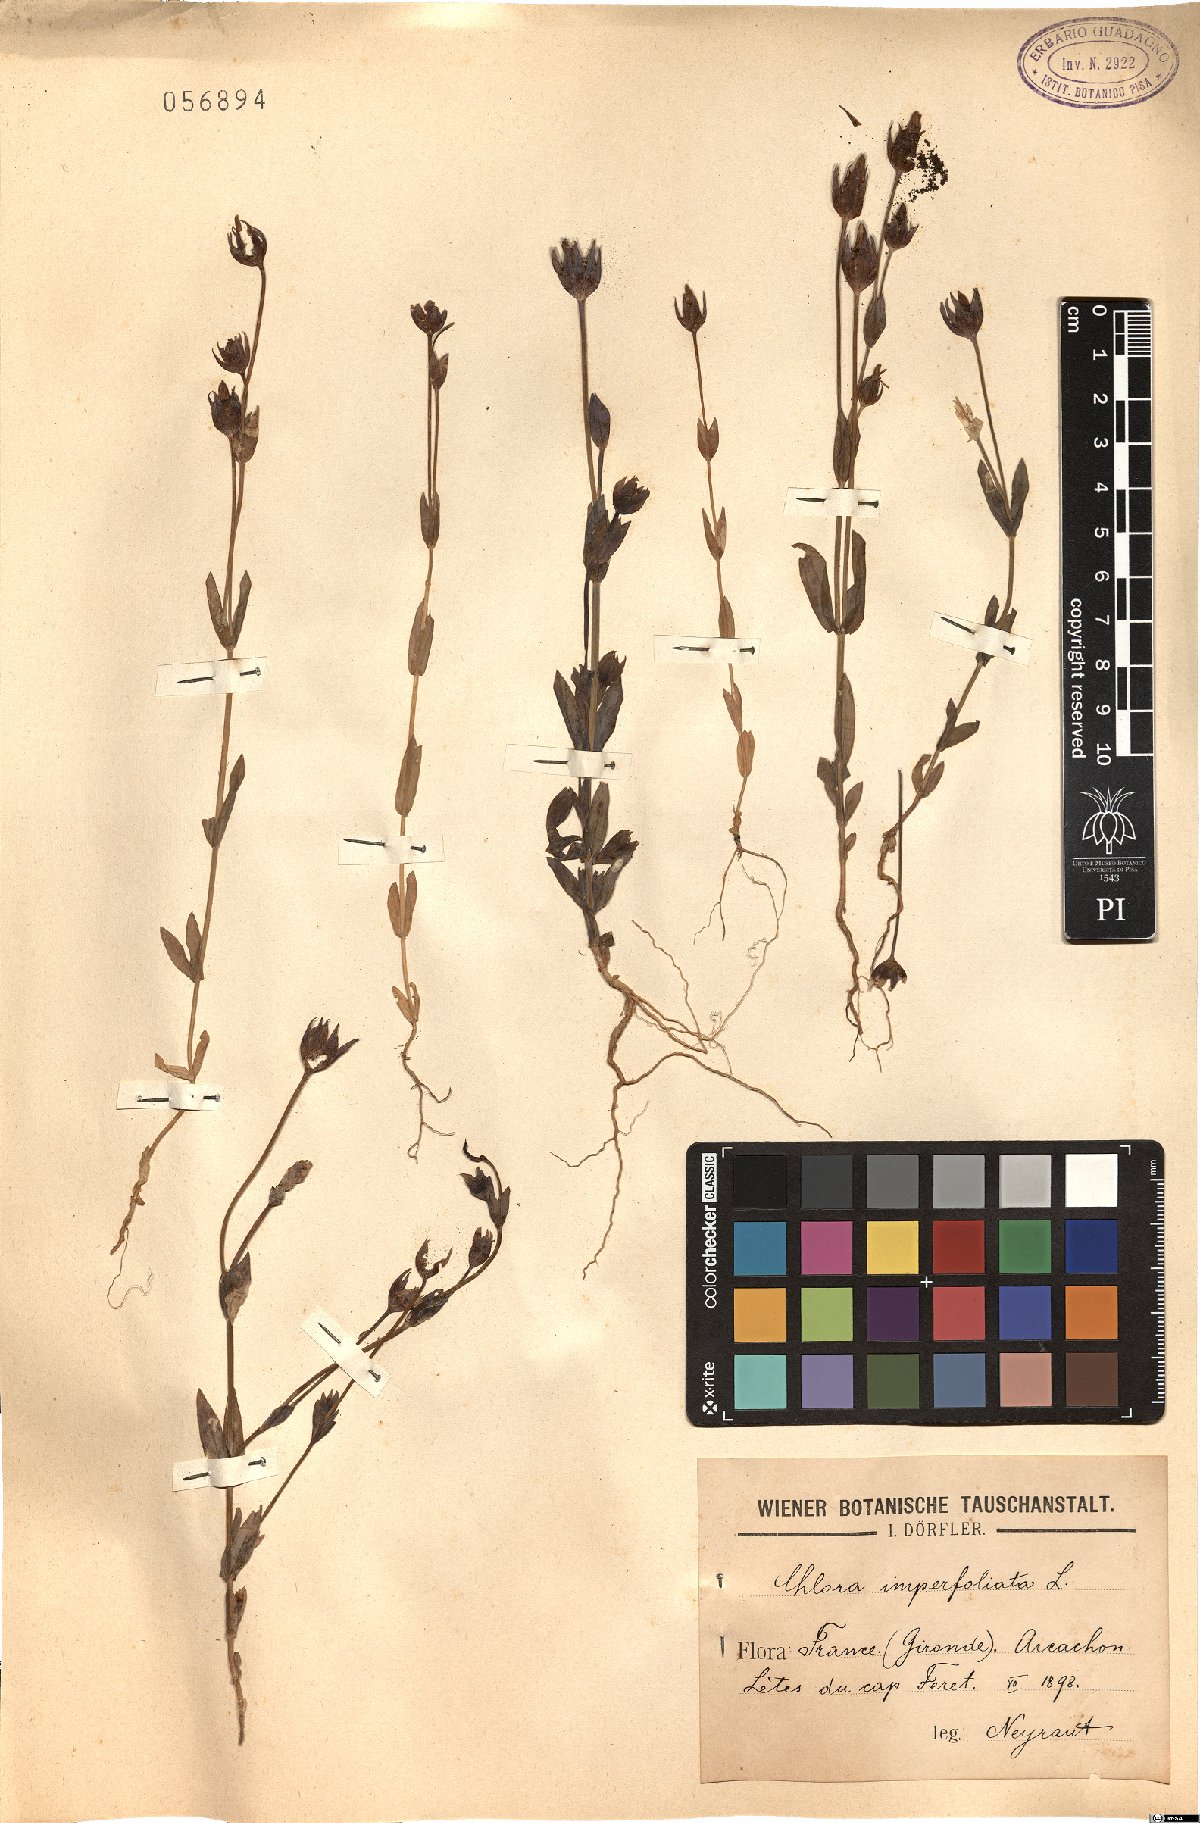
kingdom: Plantae
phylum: Tracheophyta
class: Magnoliopsida
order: Gentianales
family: Gentianaceae
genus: Blackstonia
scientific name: Blackstonia
